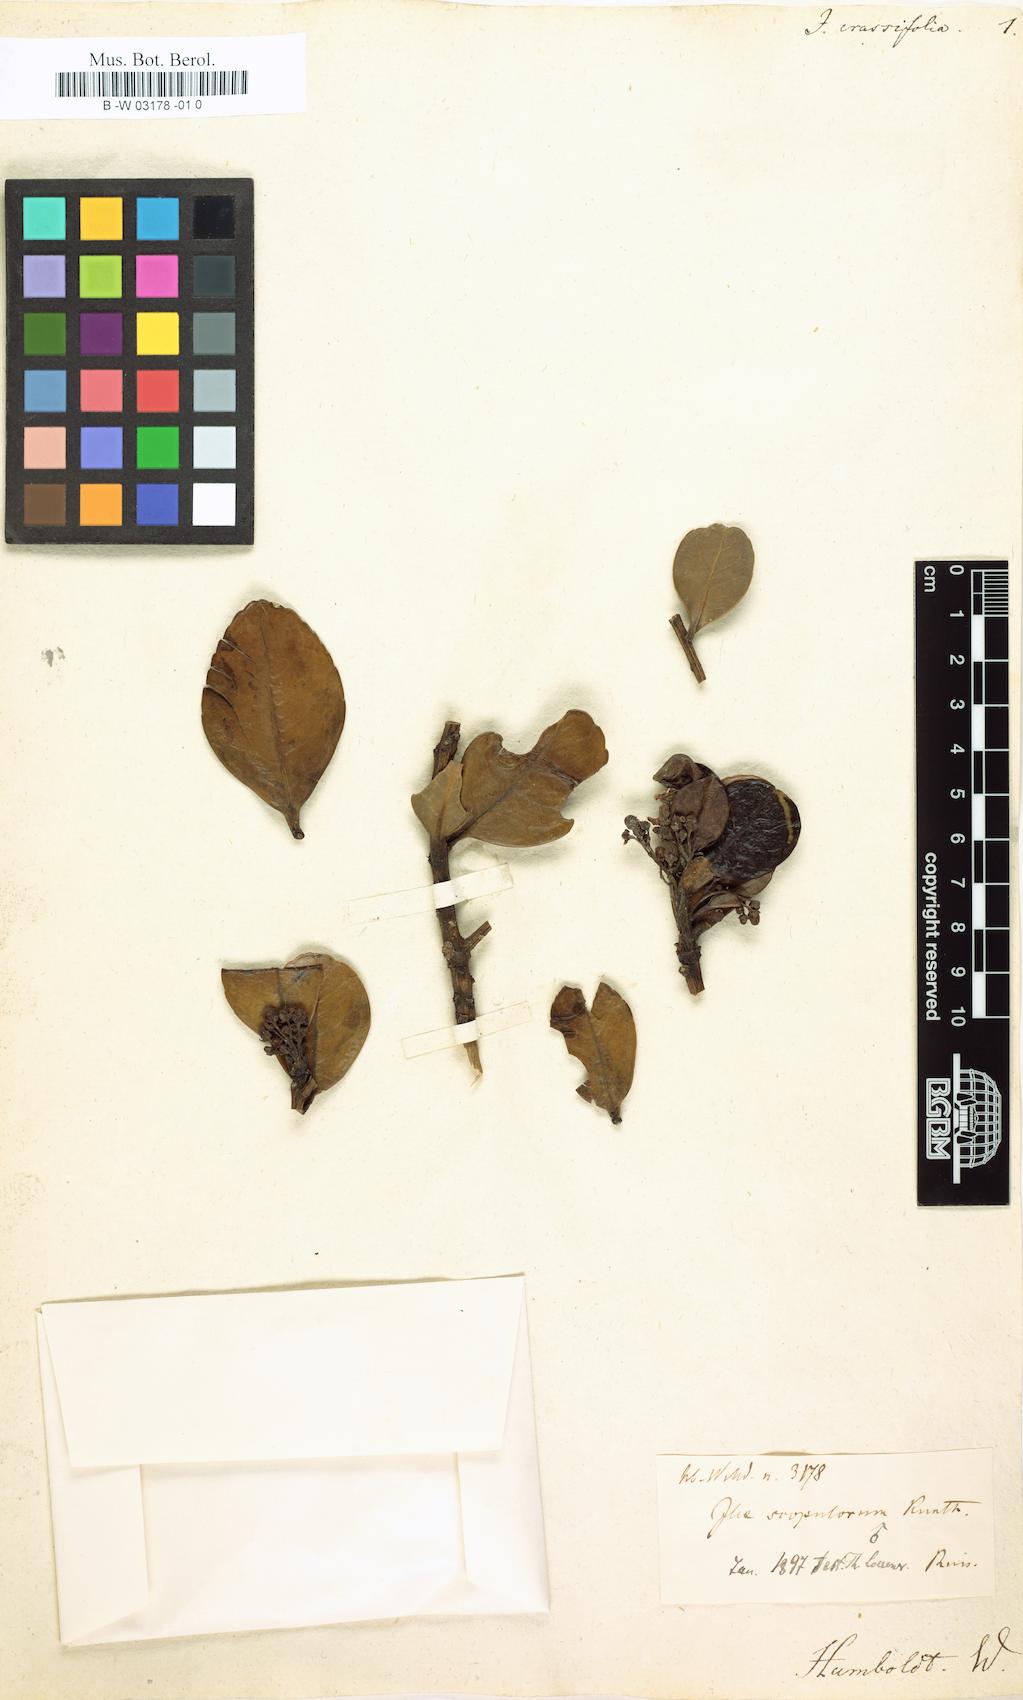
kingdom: Plantae
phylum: Tracheophyta
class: Magnoliopsida
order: Aquifoliales
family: Aquifoliaceae
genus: Ilex
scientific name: Ilex scopulorum
